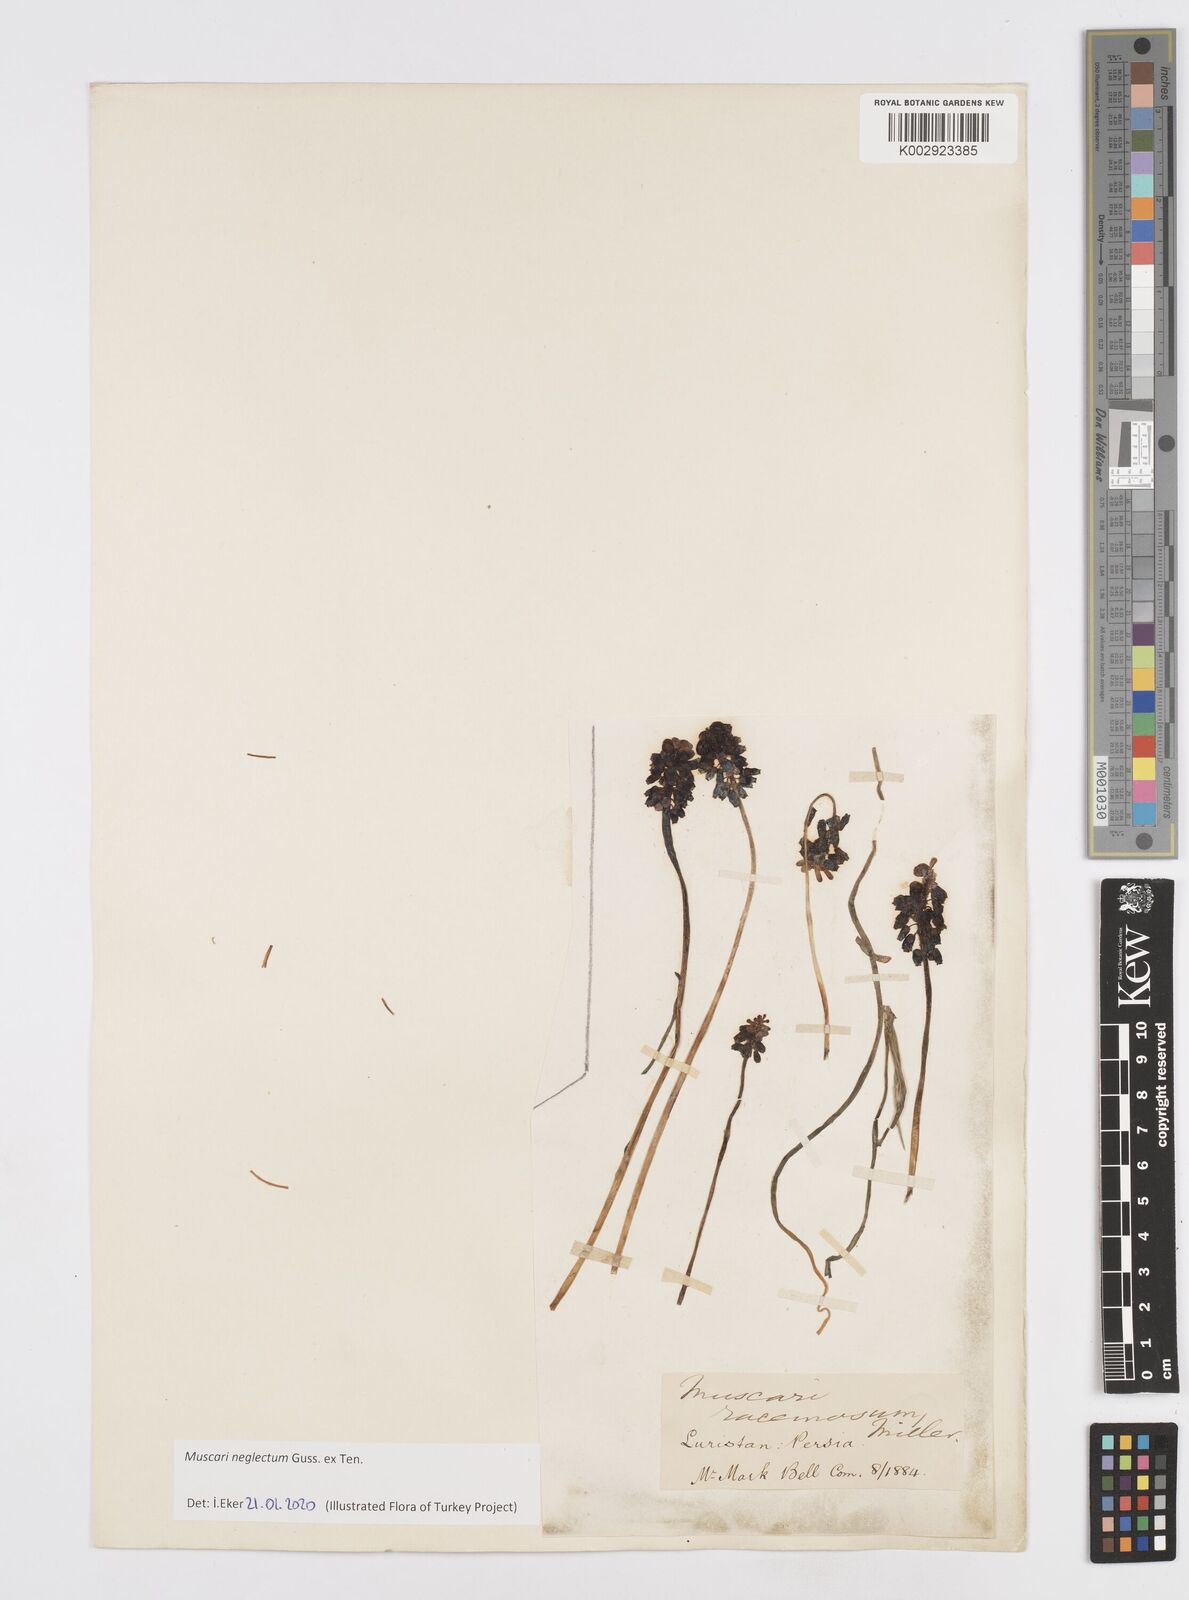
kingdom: Plantae
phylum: Tracheophyta
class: Liliopsida
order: Asparagales
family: Asparagaceae
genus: Muscari
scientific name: Muscari neglectum
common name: Grape-hyacinth
